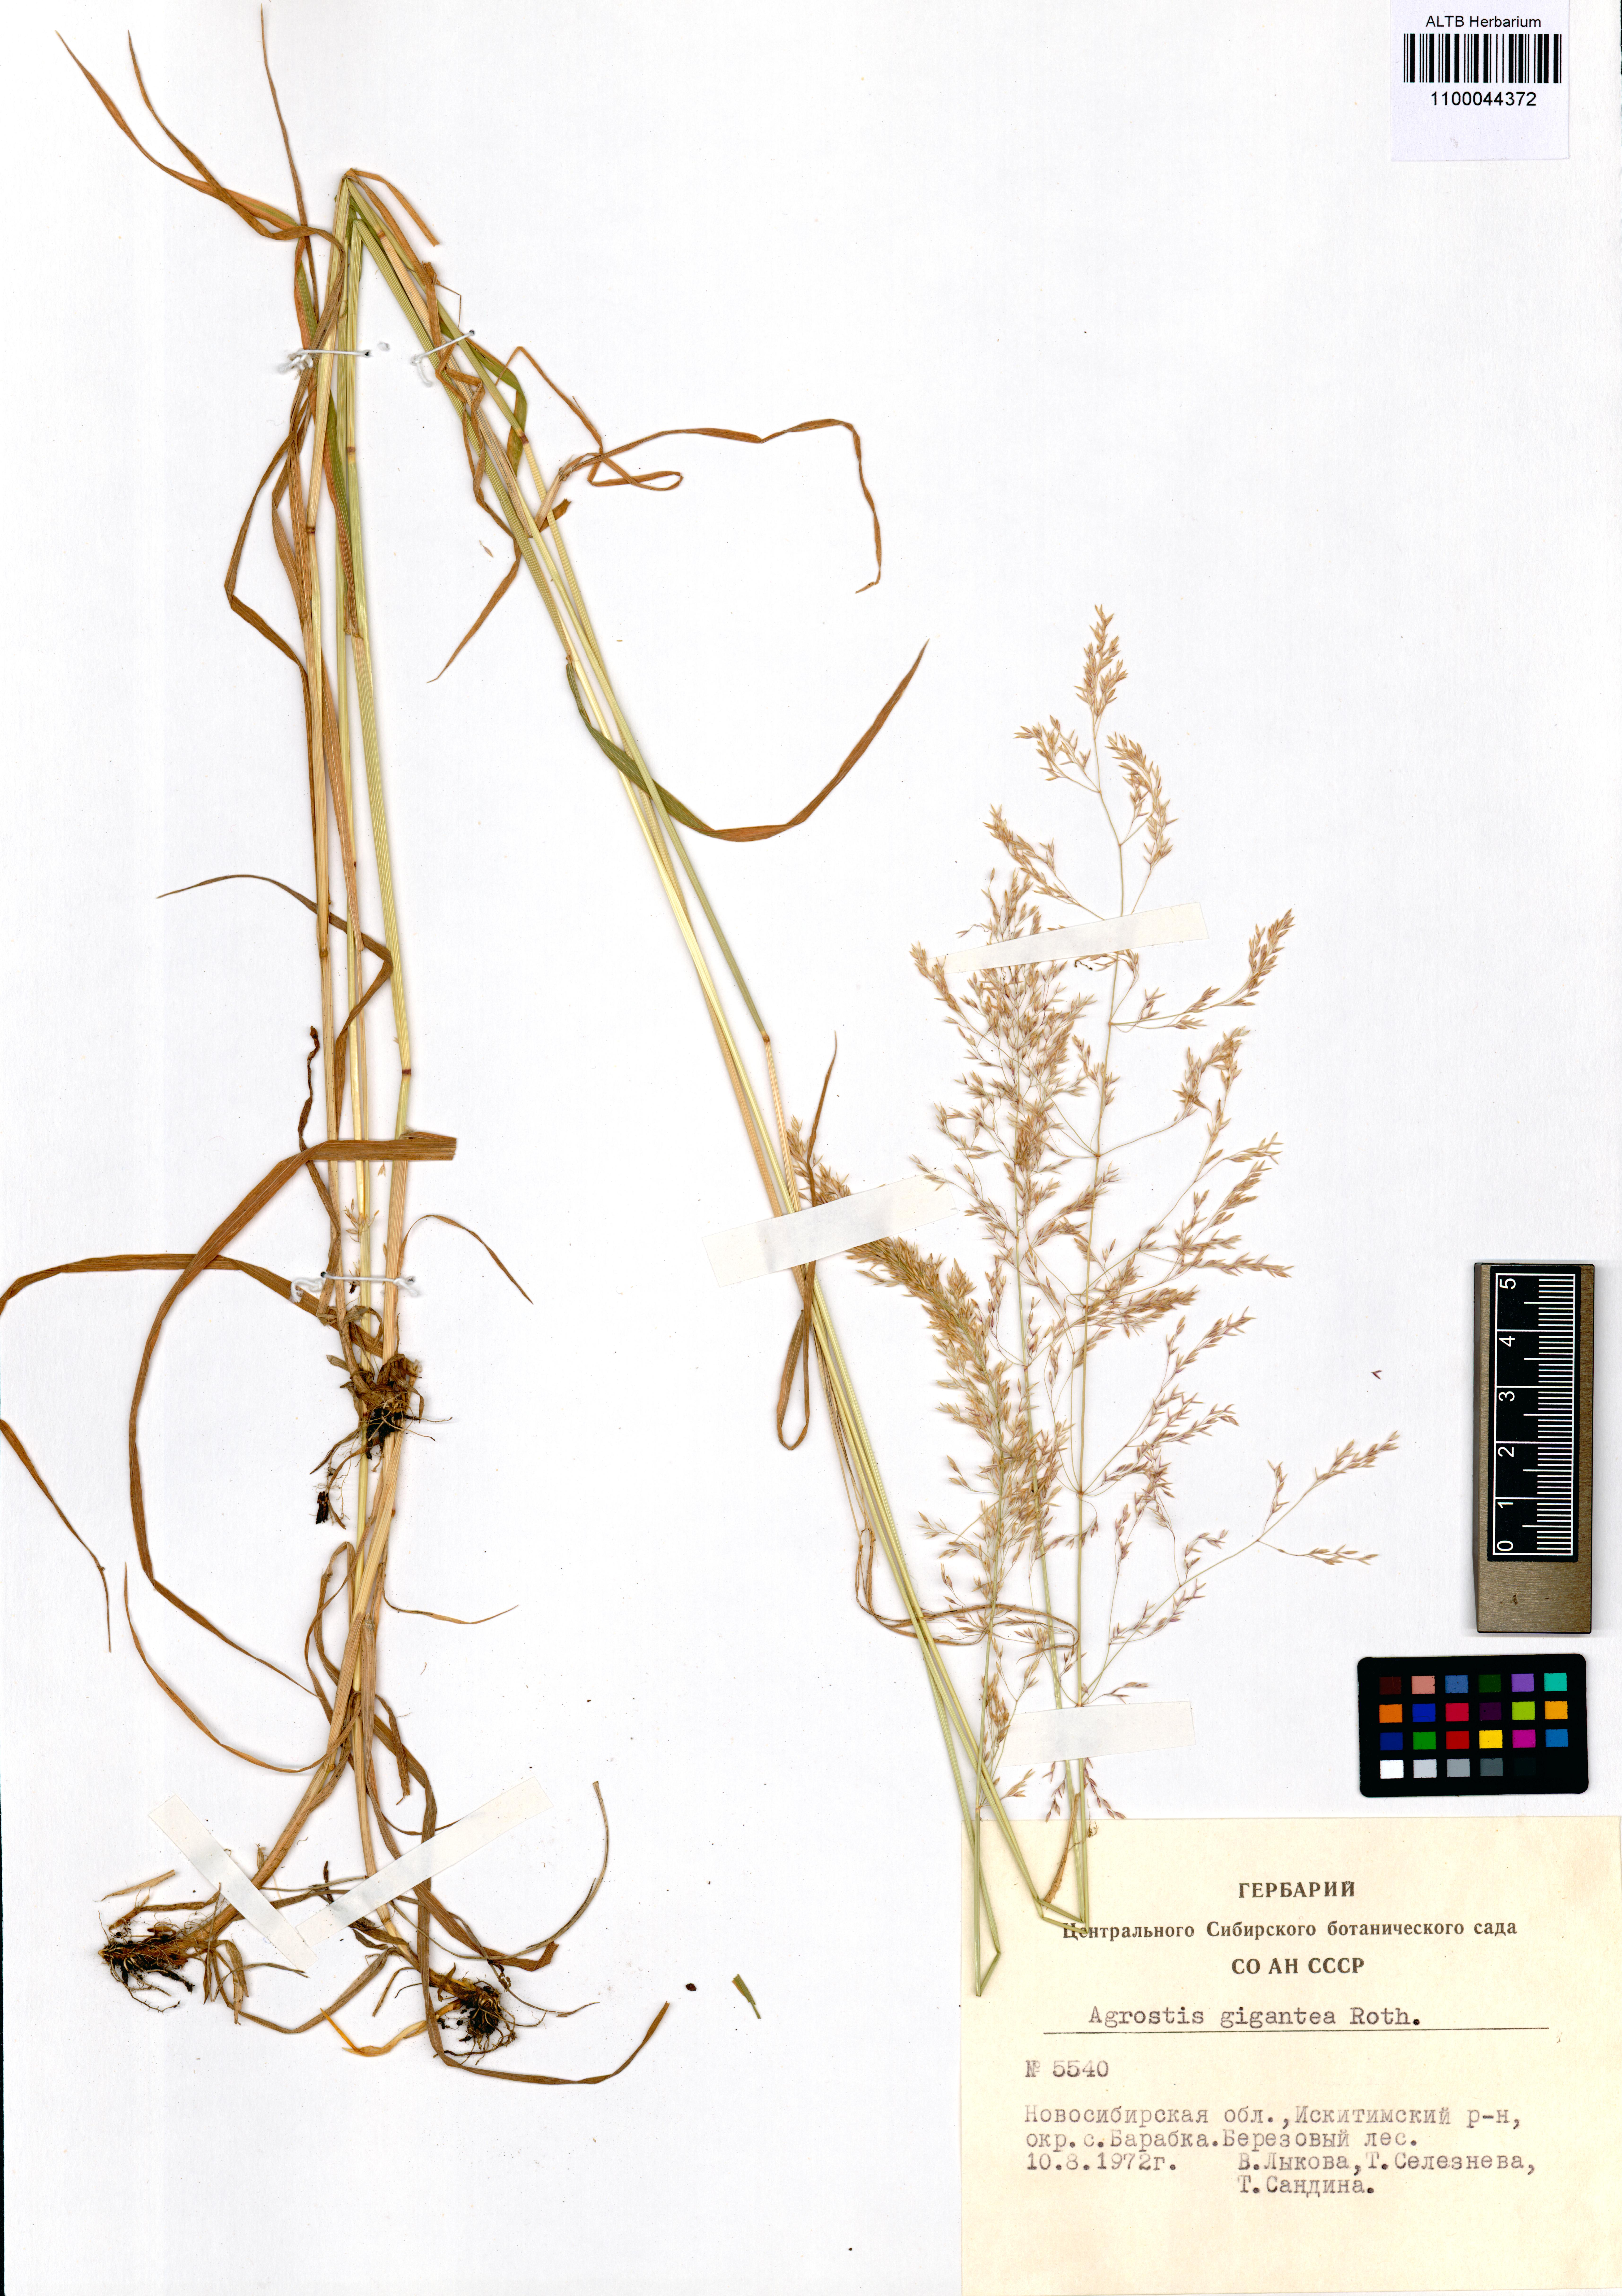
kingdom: Plantae
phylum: Tracheophyta
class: Liliopsida
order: Poales
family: Poaceae
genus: Agrostis
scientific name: Agrostis gigantea
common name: Black bent
